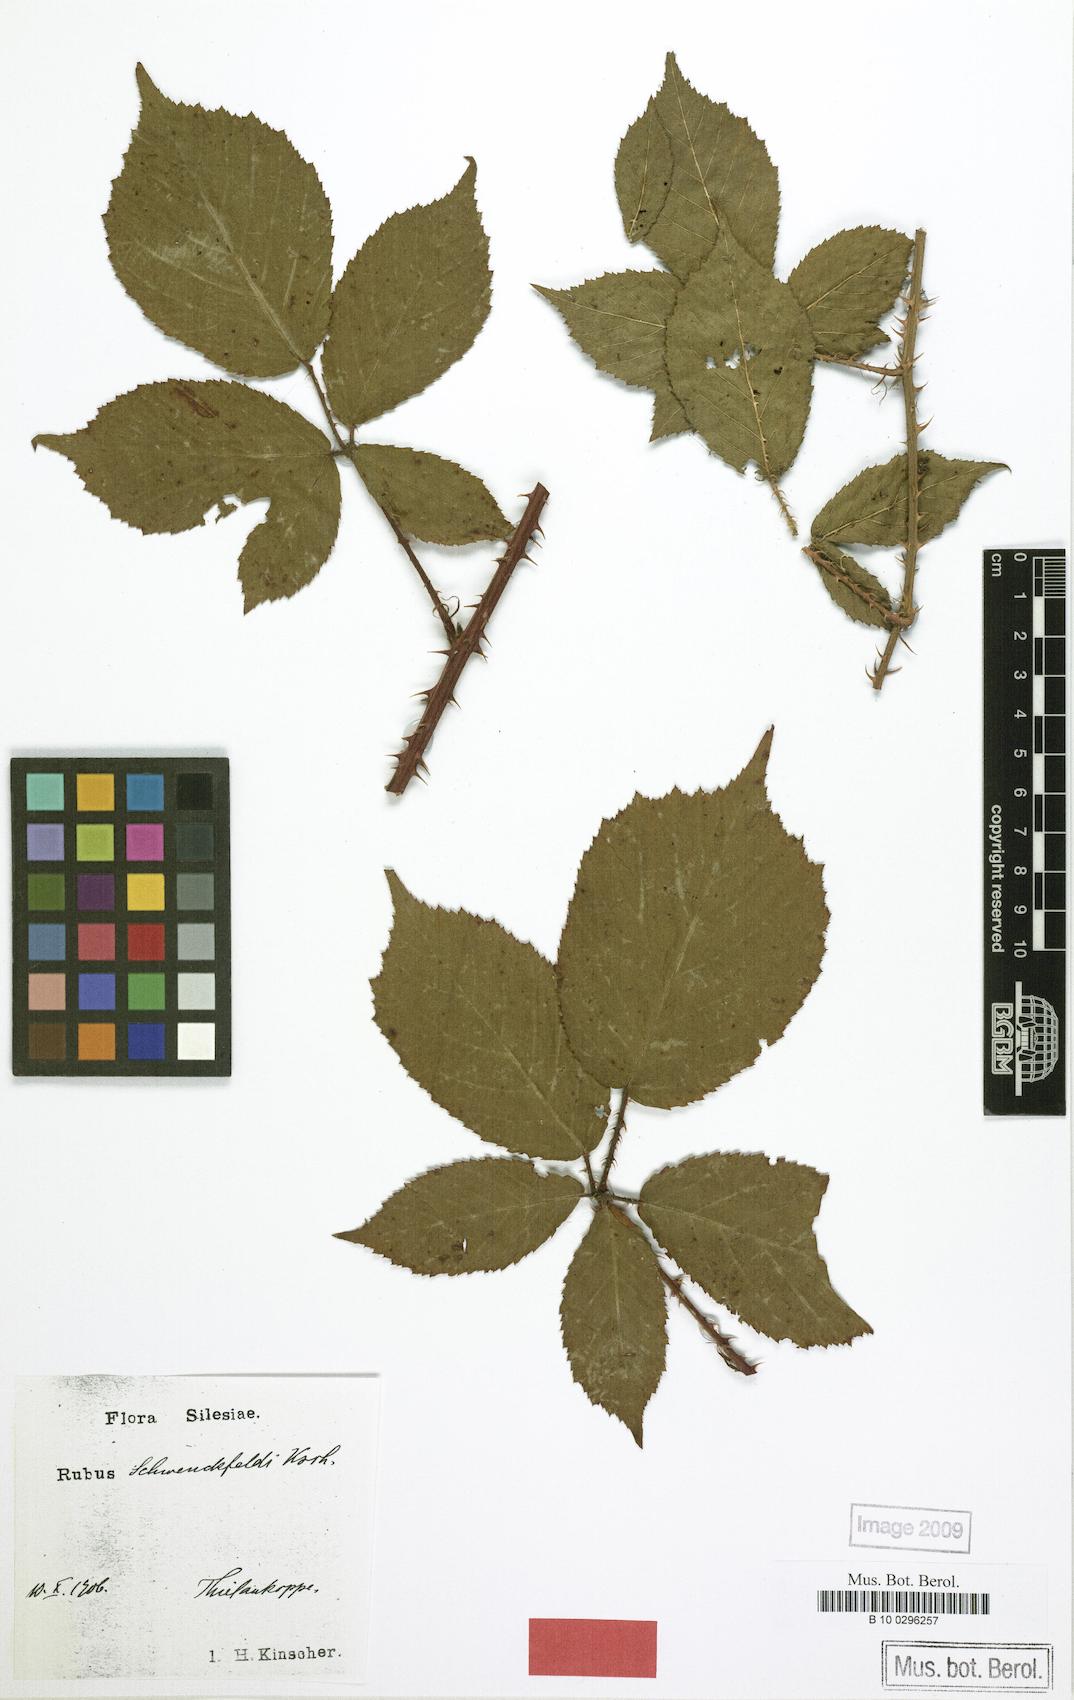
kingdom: Plantae
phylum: Tracheophyta
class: Magnoliopsida
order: Rosales
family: Rosaceae
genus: Rubus
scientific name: Rubus cimbricus
